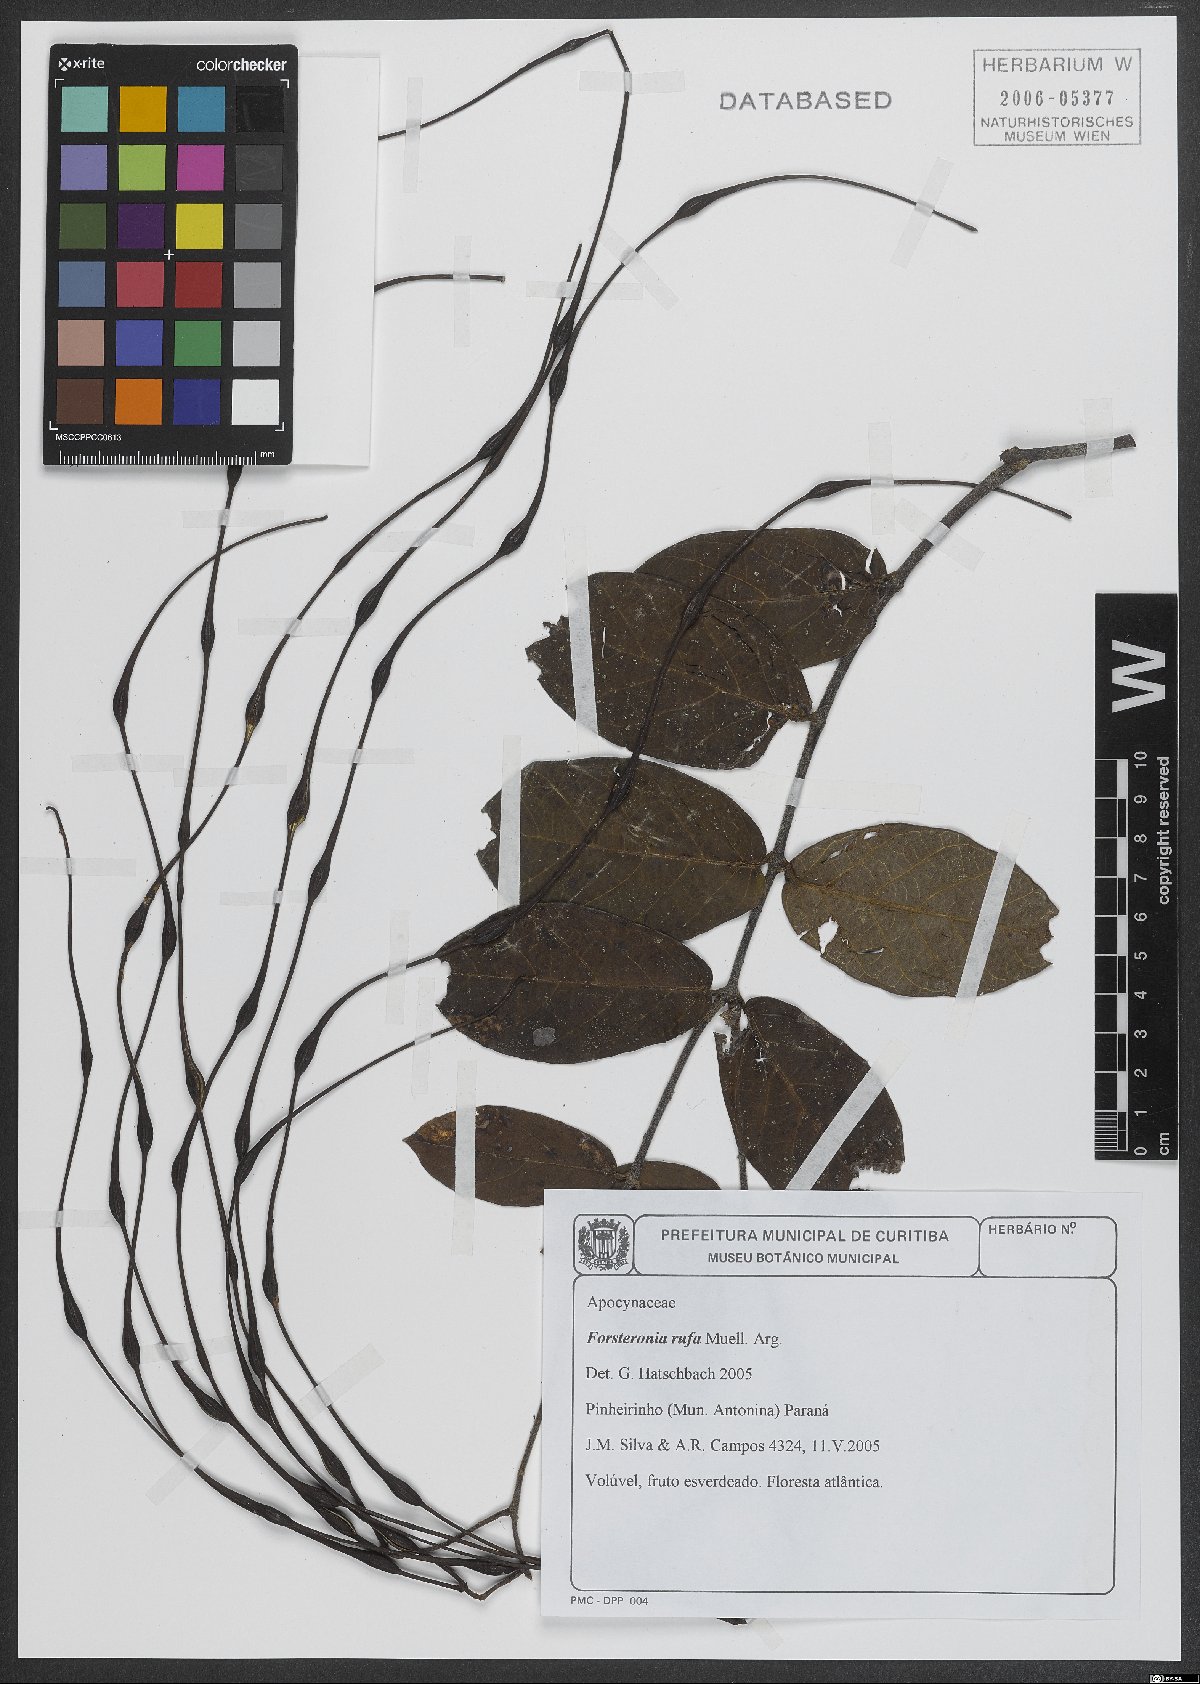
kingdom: Plantae
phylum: Tracheophyta
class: Magnoliopsida
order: Gentianales
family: Apocynaceae
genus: Forsteronia
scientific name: Forsteronia rufa
